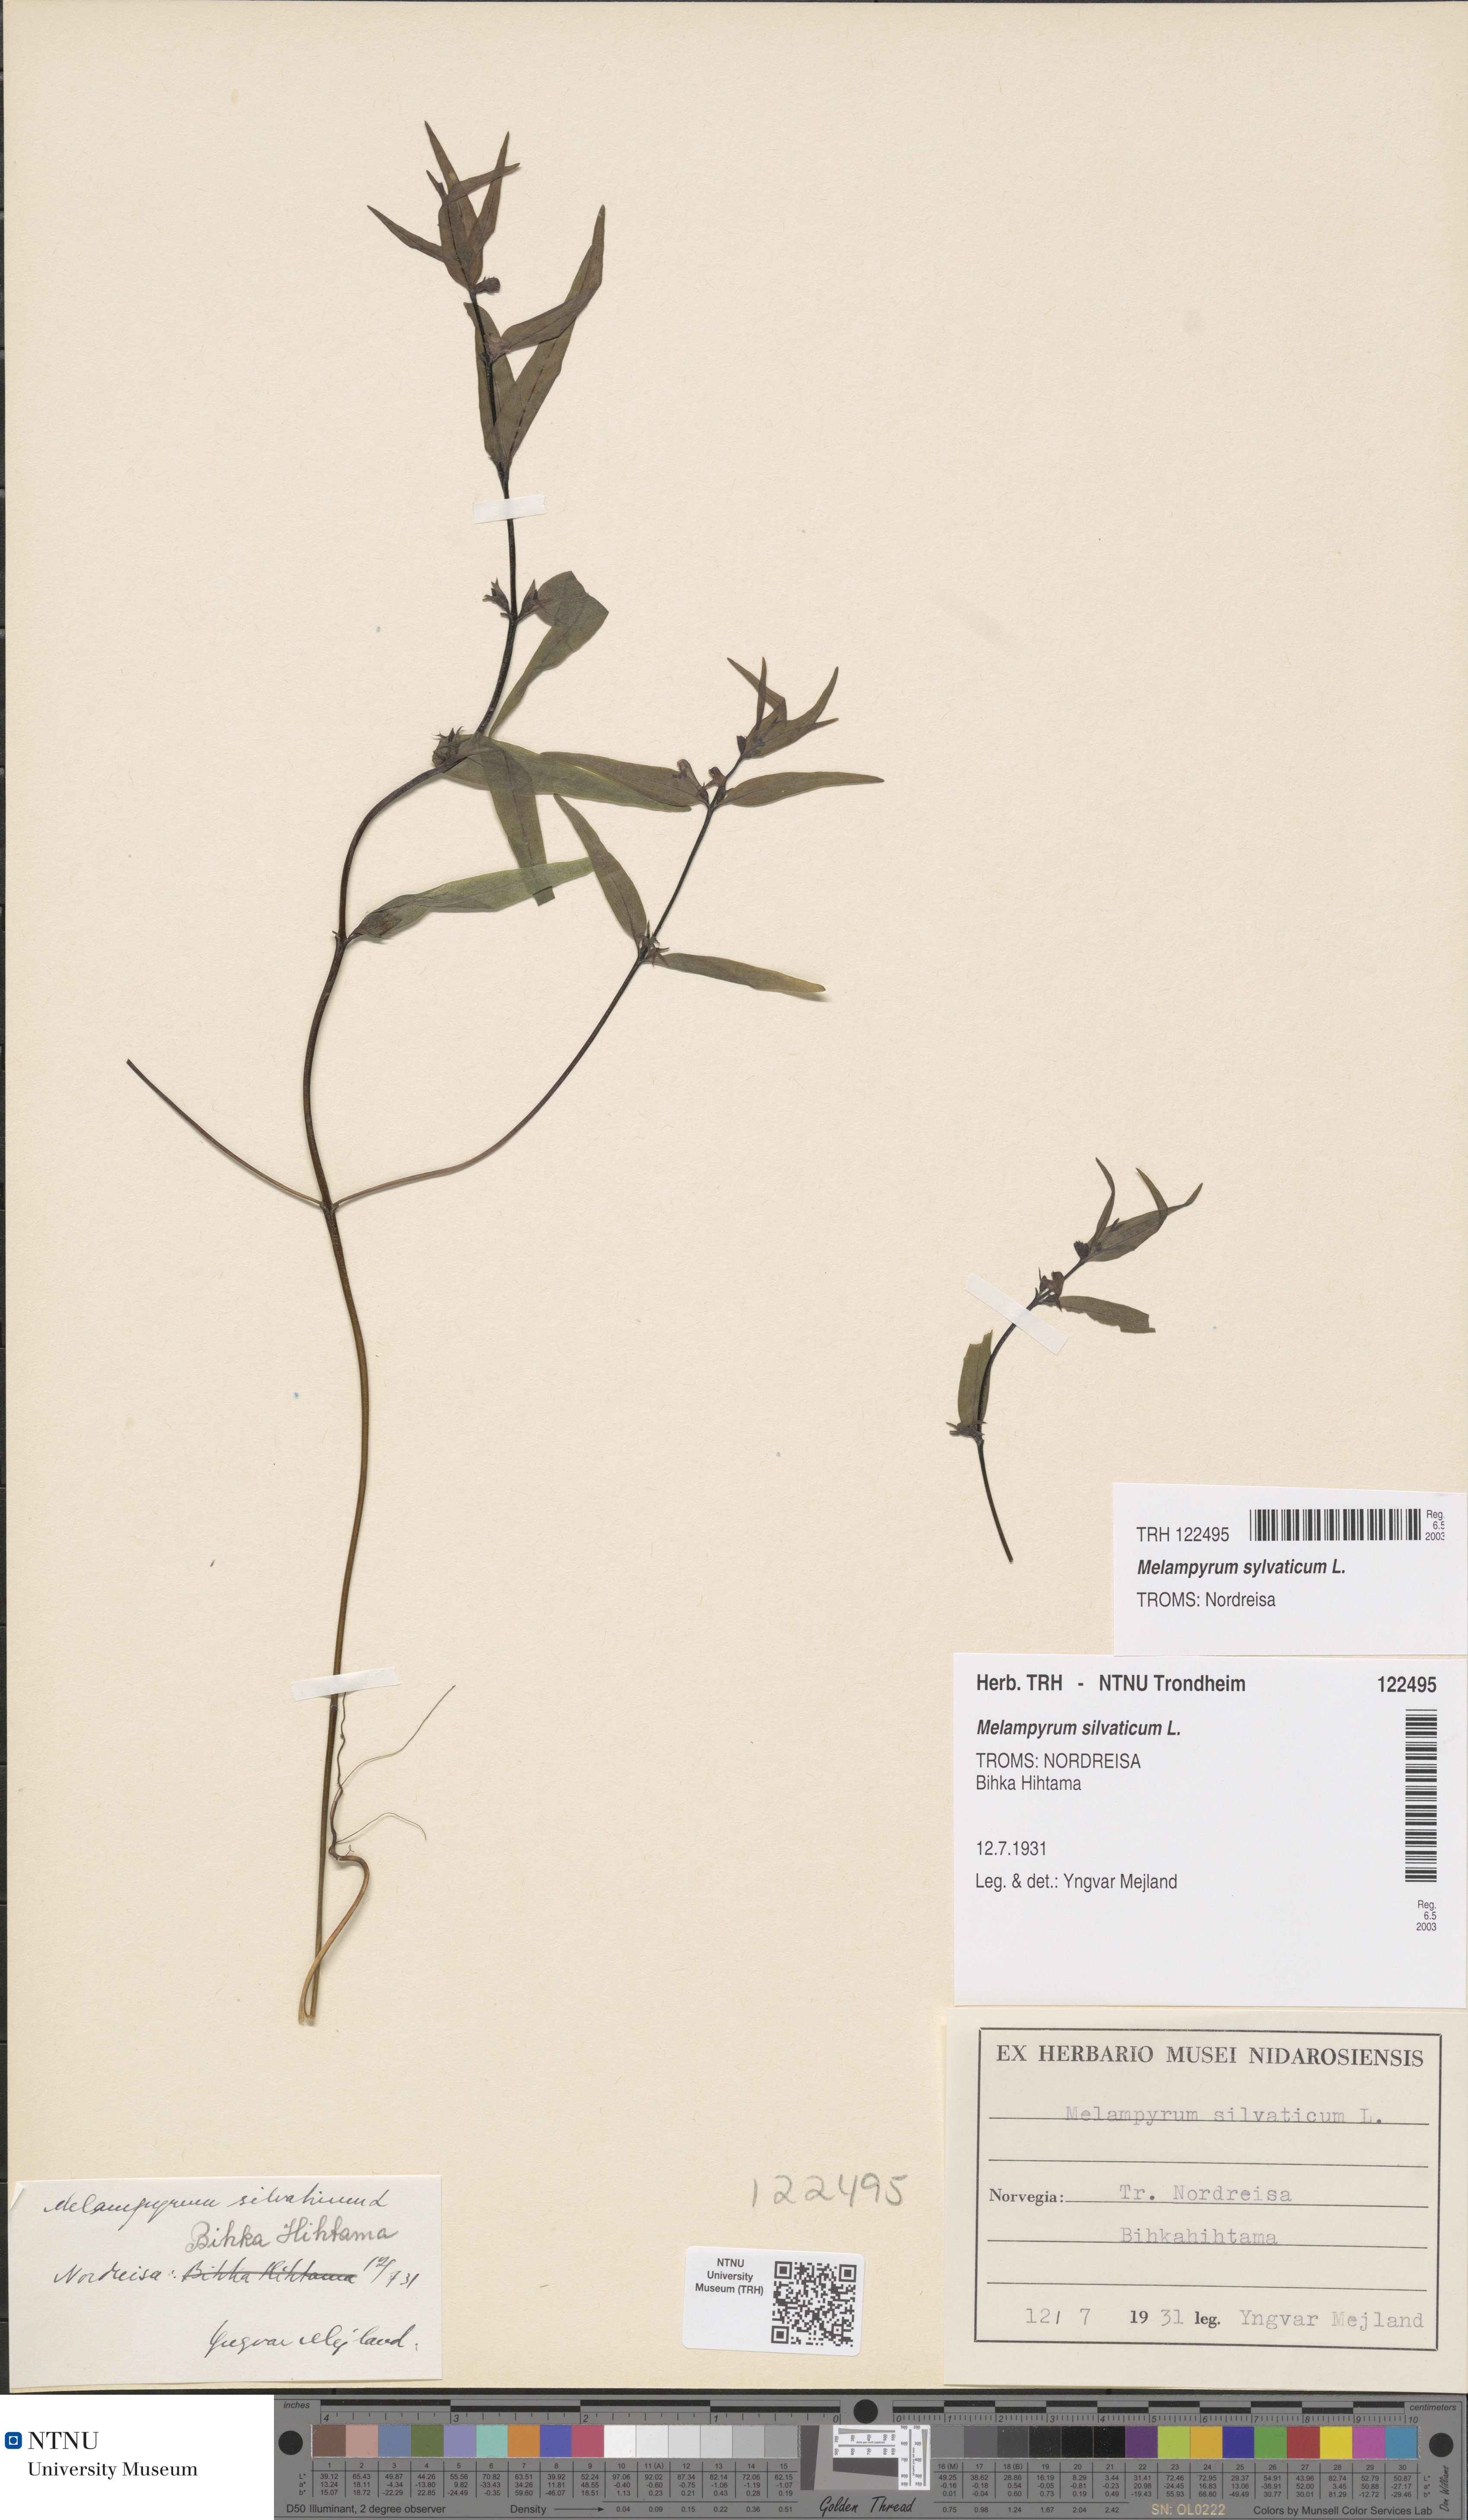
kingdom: Plantae
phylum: Tracheophyta
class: Magnoliopsida
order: Lamiales
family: Orobanchaceae
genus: Melampyrum
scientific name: Melampyrum sylvaticum
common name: Small cow-wheat
